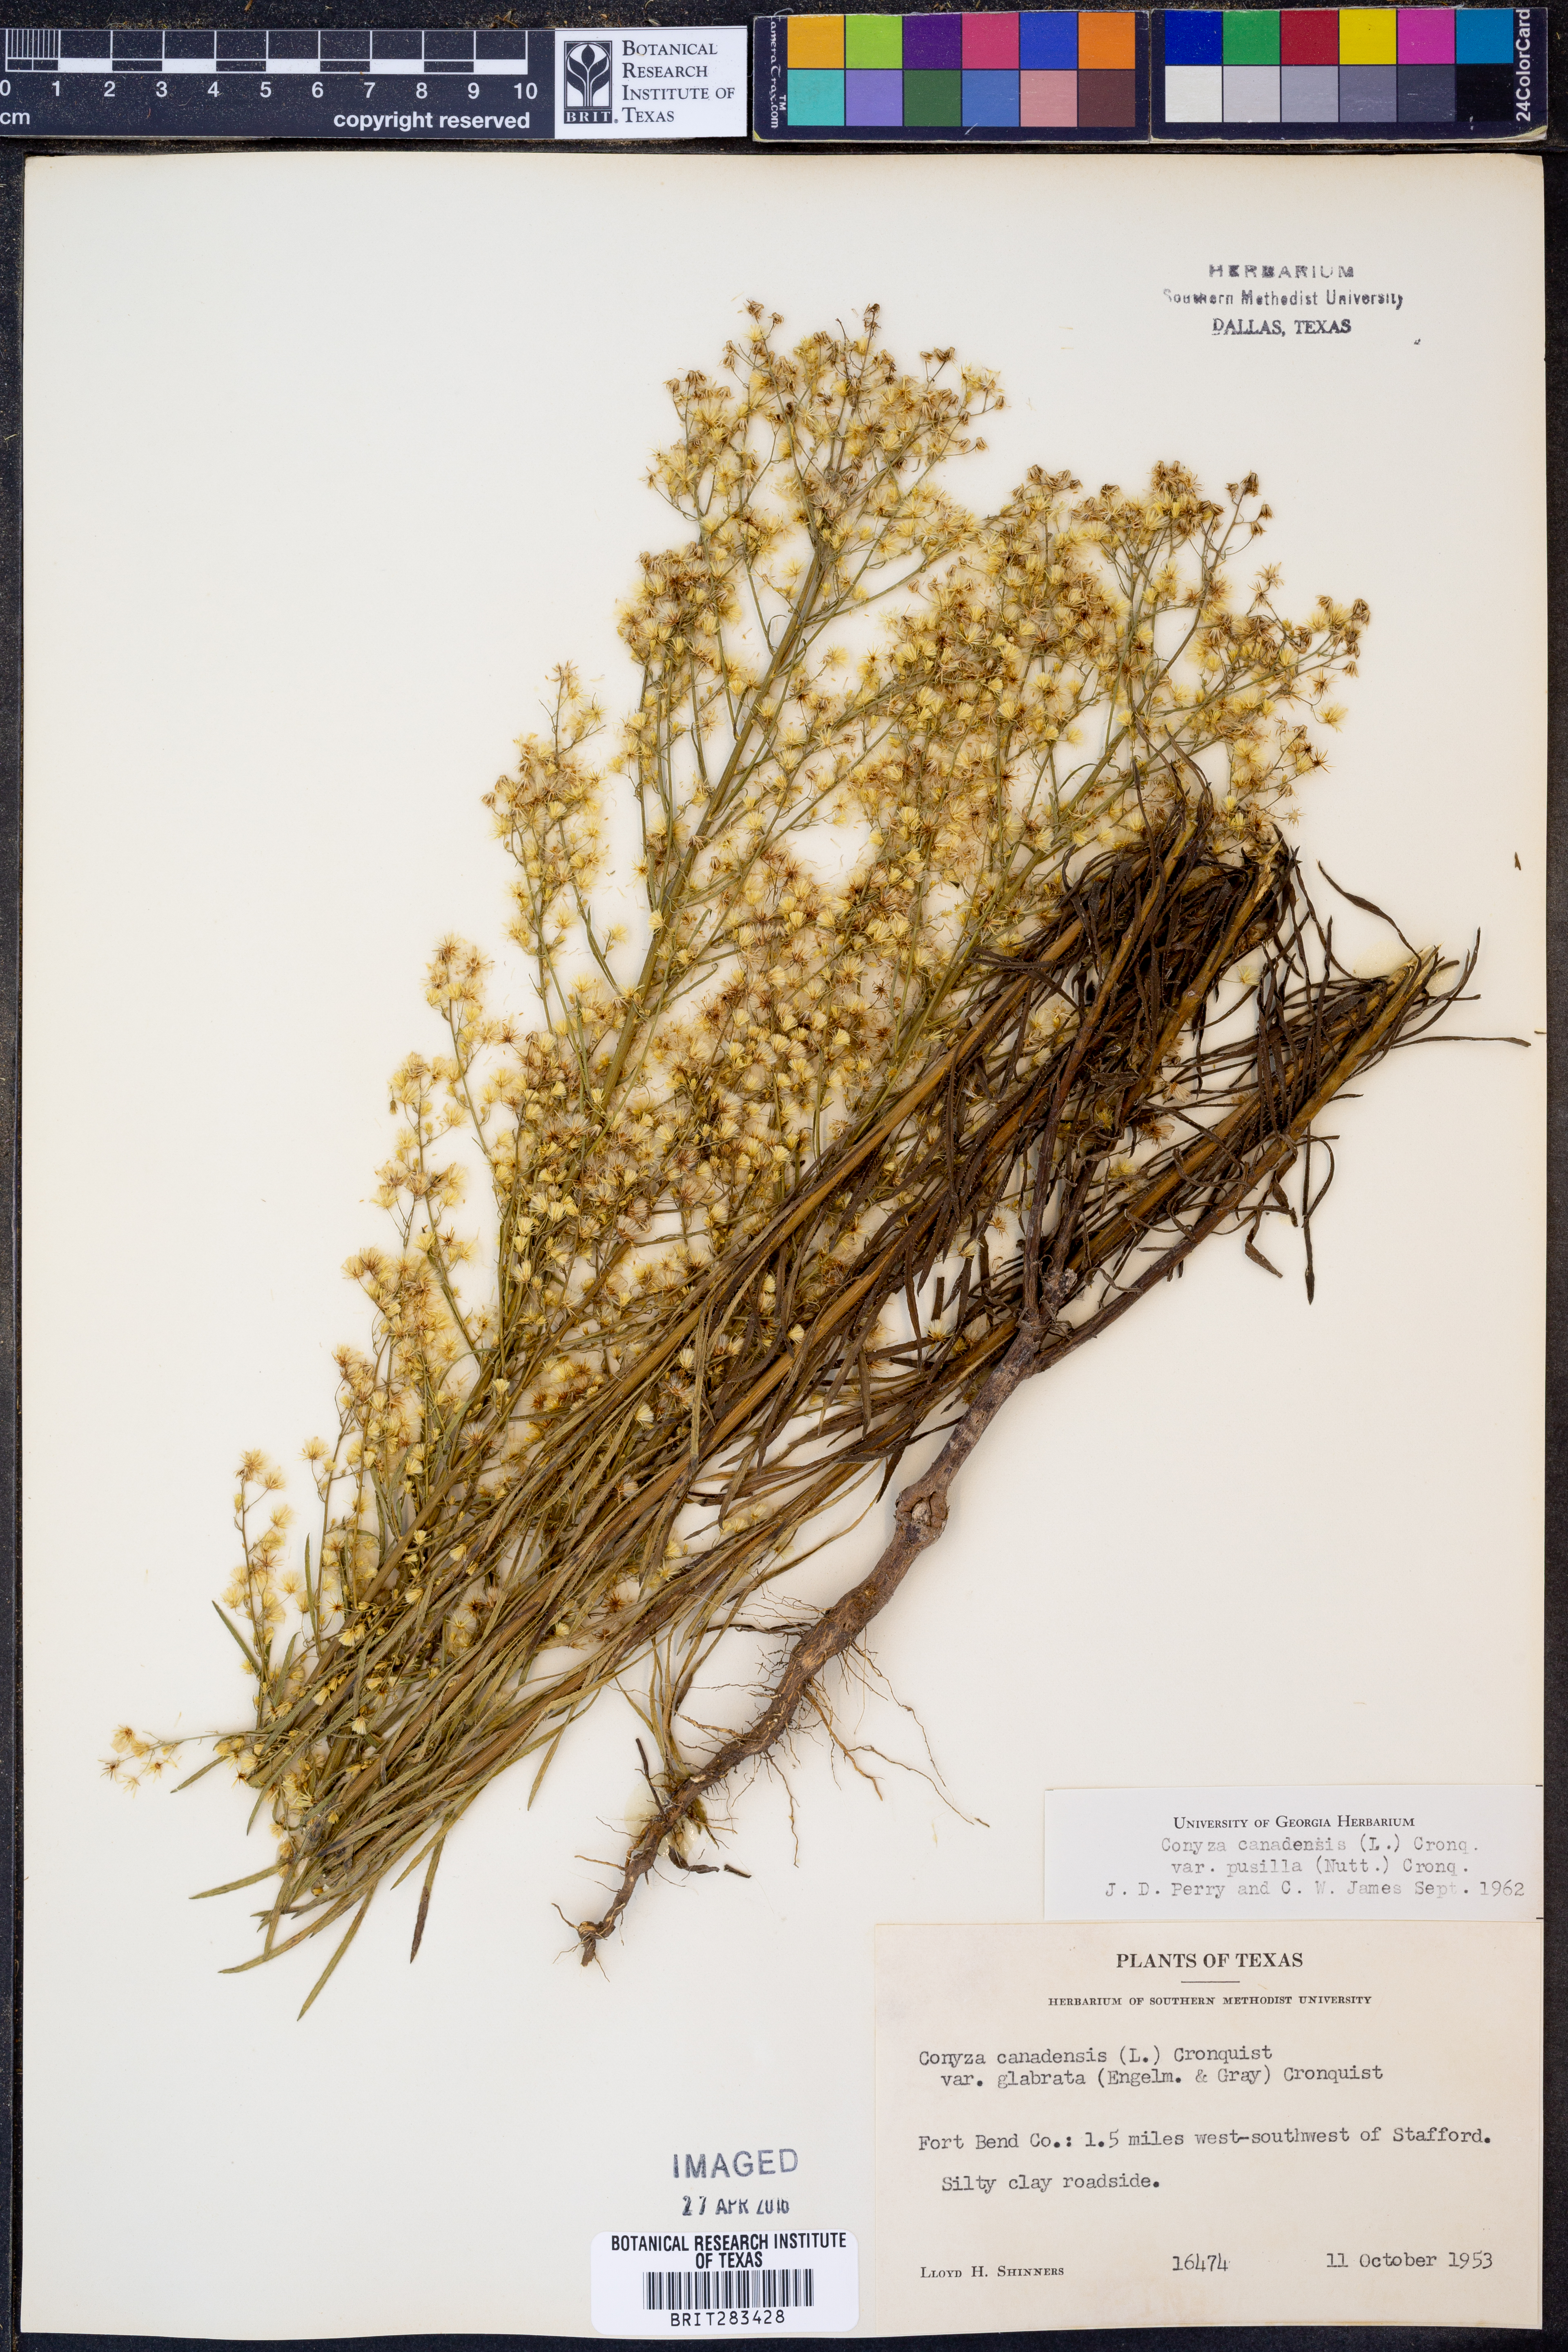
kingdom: Plantae
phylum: Tracheophyta
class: Magnoliopsida
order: Asterales
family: Asteraceae
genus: Erigeron
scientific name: Erigeron canadensis
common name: Canadian fleabane
